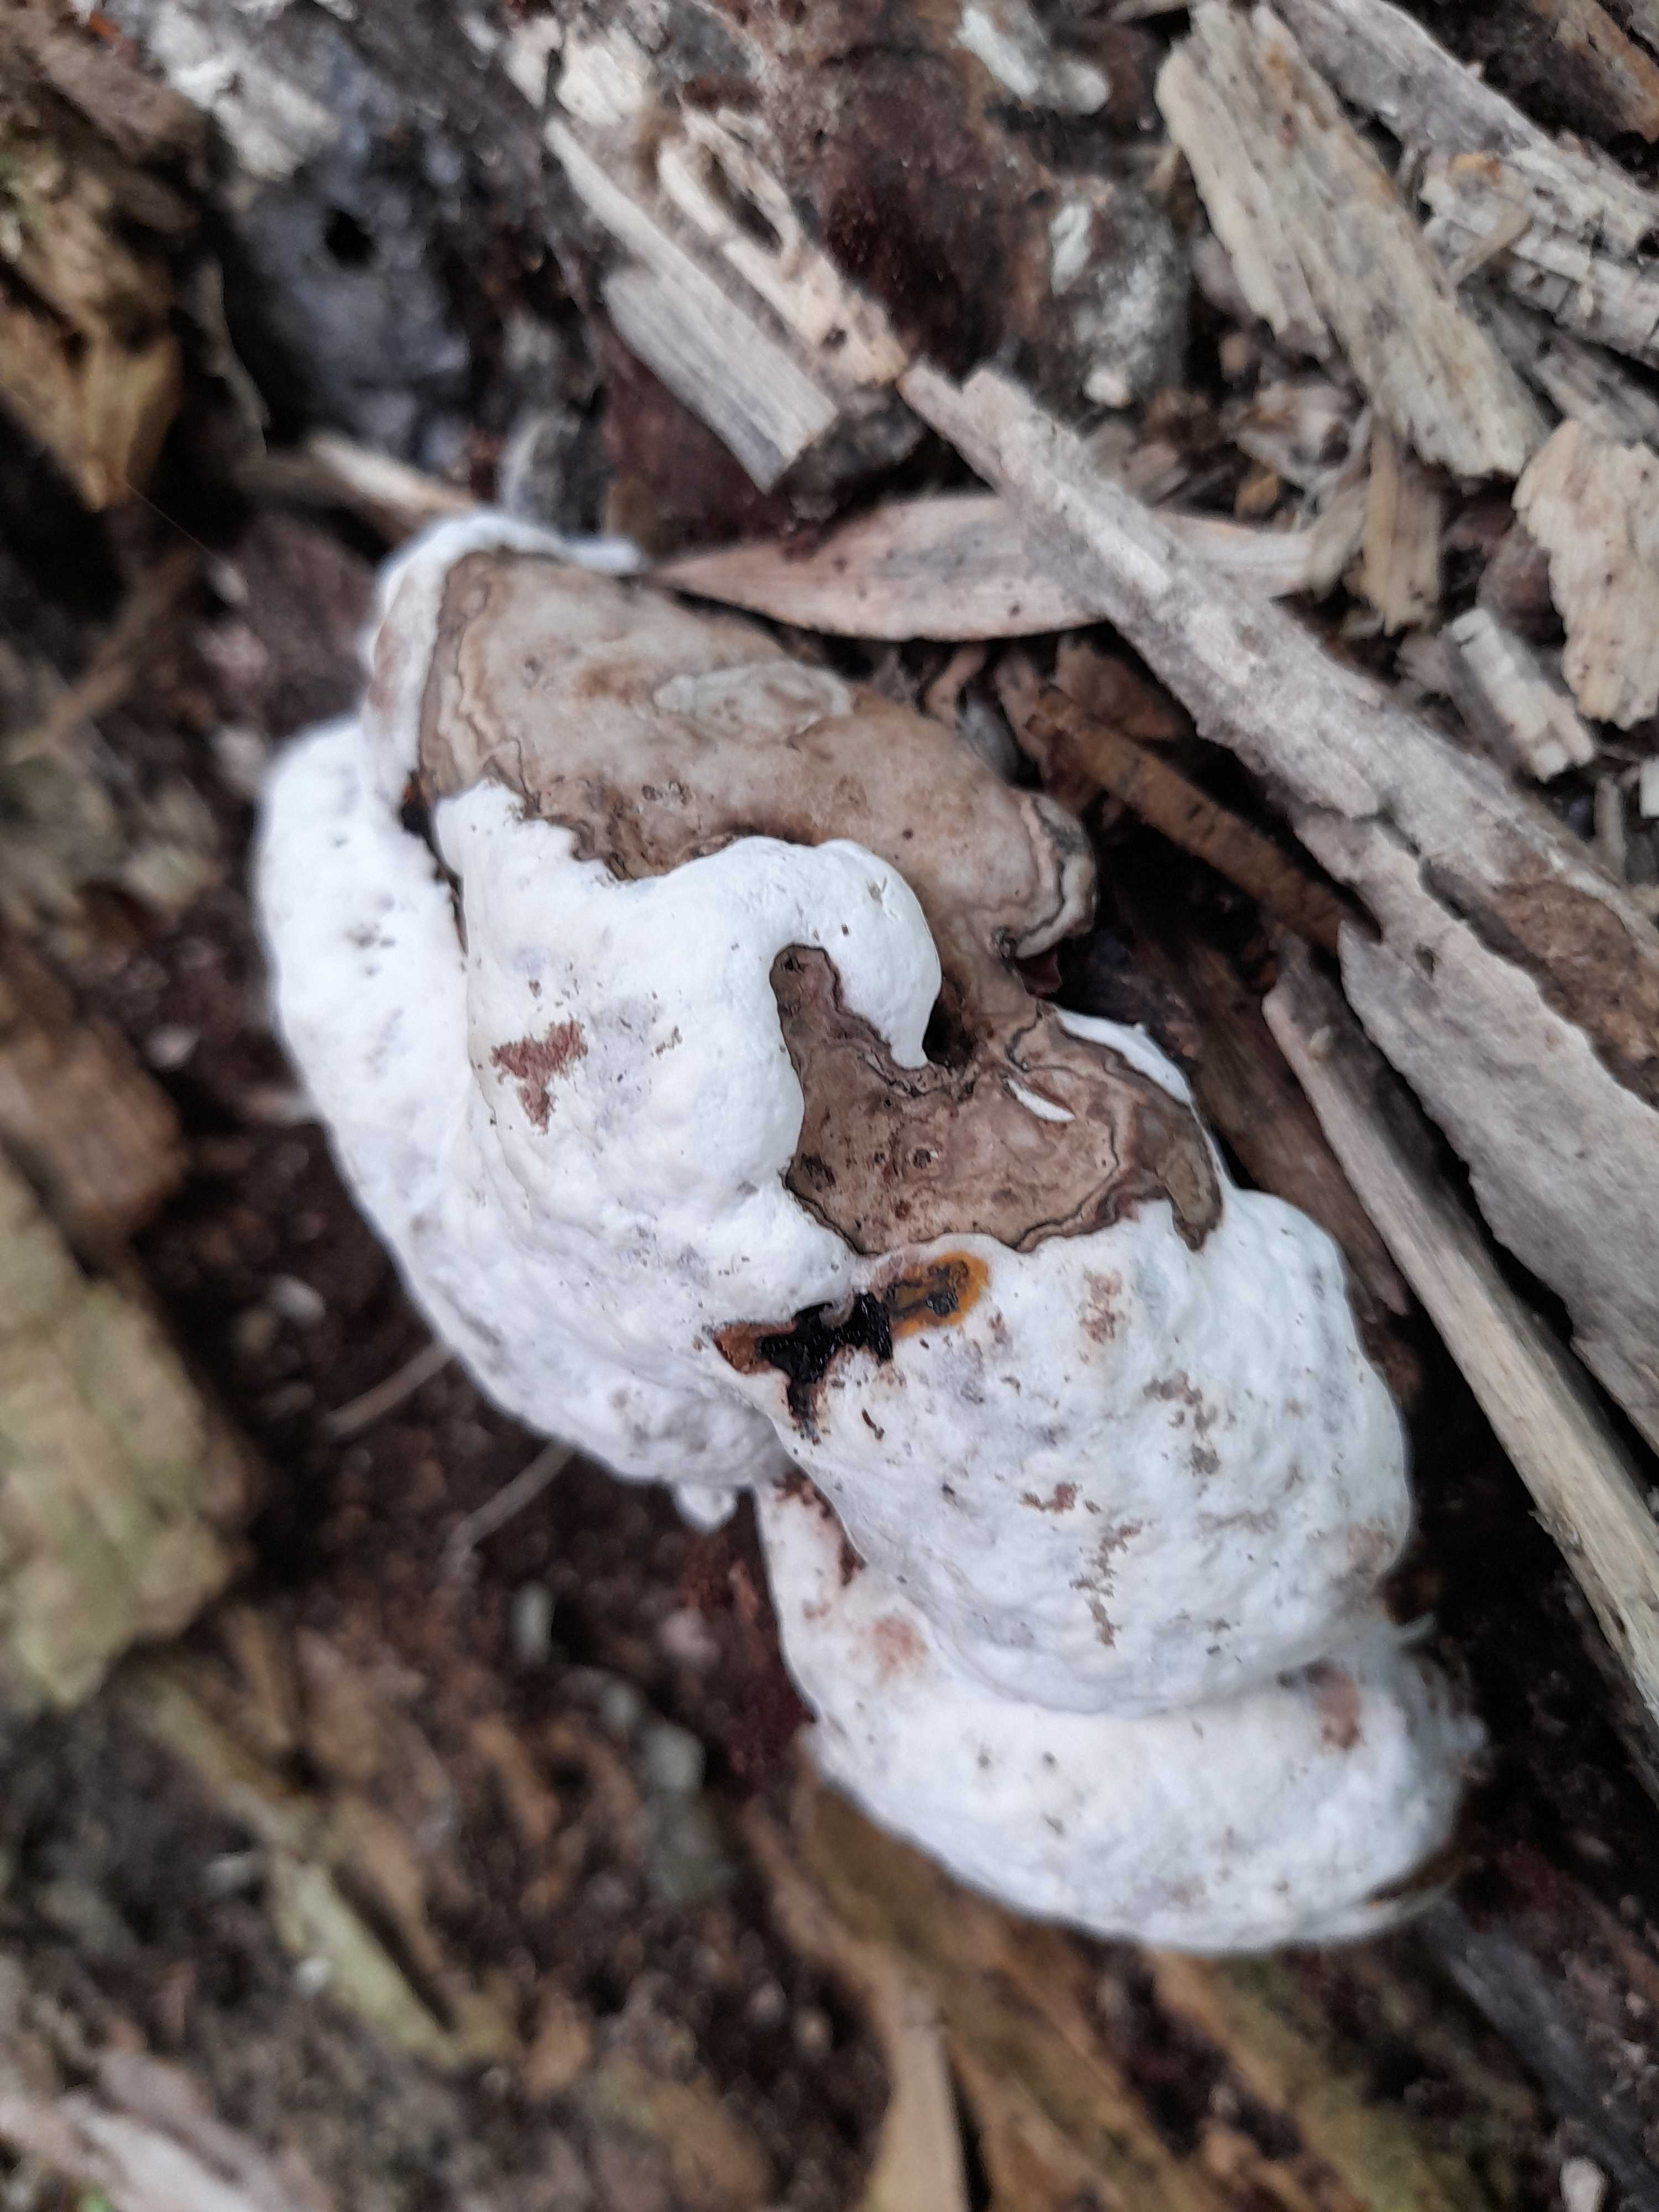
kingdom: Fungi
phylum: Basidiomycota
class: Agaricomycetes
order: Polyporales
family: Polyporaceae
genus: Ganoderma
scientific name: Ganoderma applanatum
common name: flad lakporesvamp
